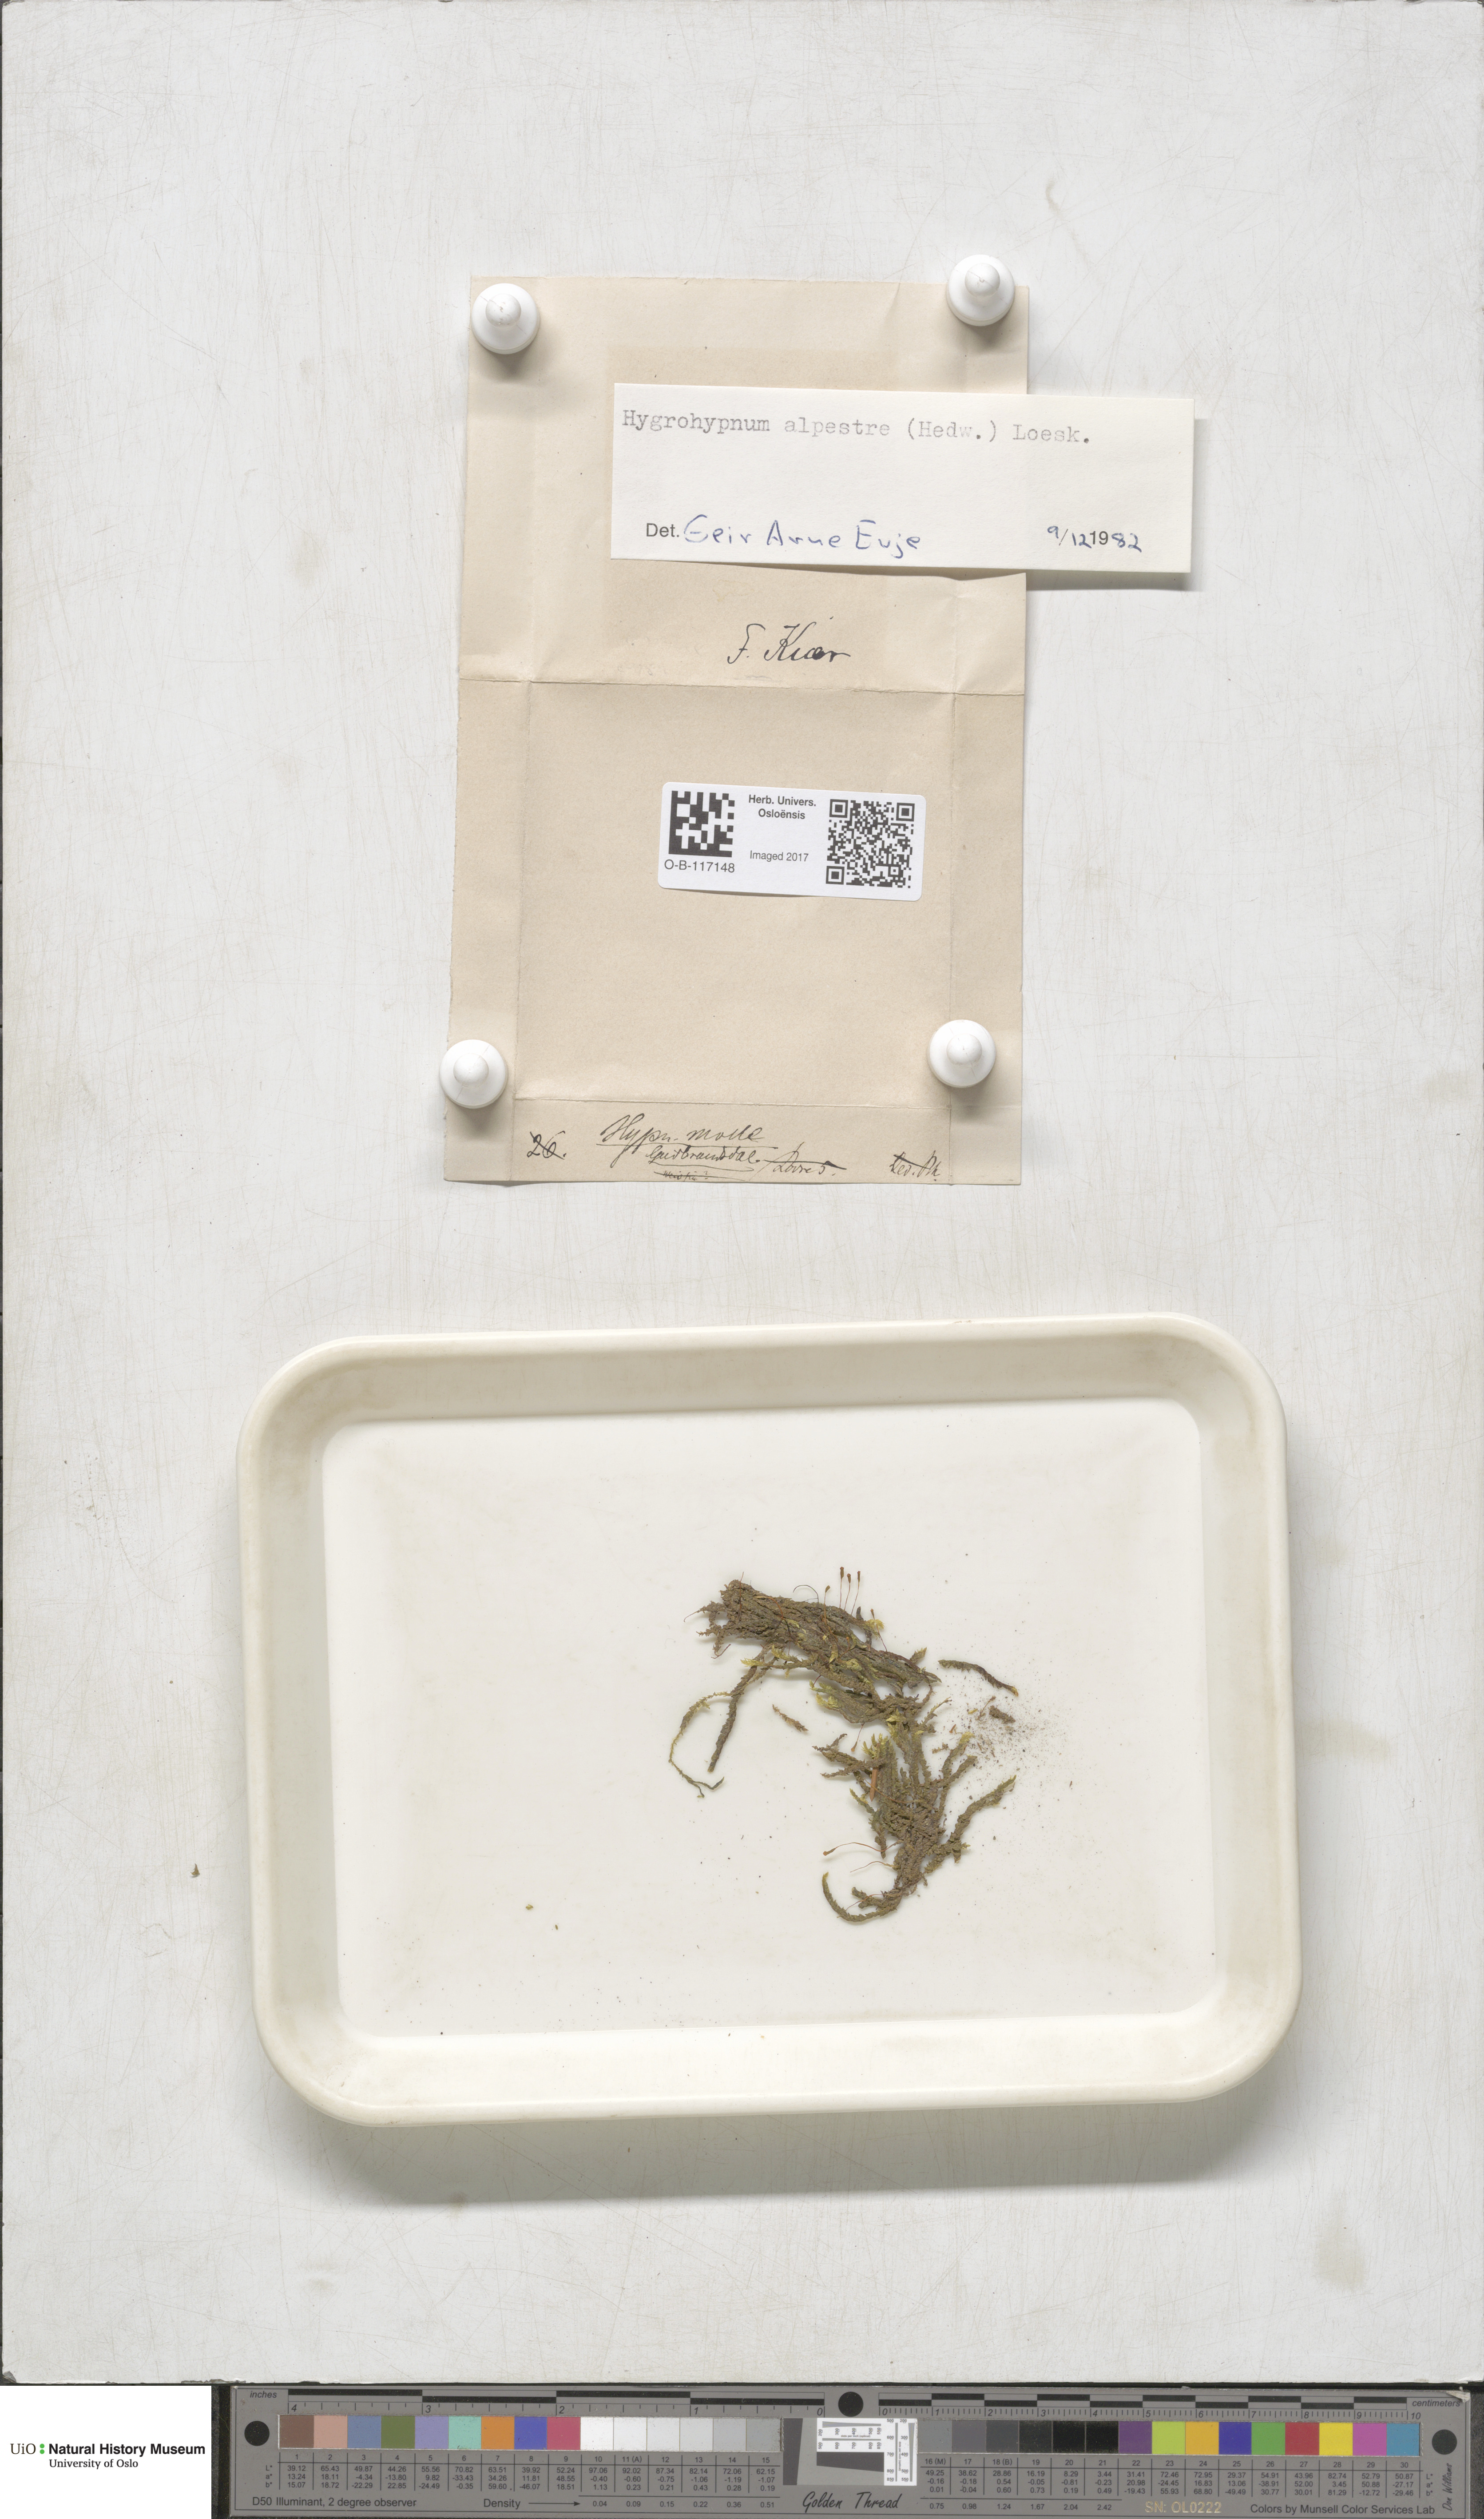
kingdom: Plantae
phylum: Bryophyta
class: Bryopsida
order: Hypnales
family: Amblystegiaceae
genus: Platyhypnum
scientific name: Platyhypnum alpestre
